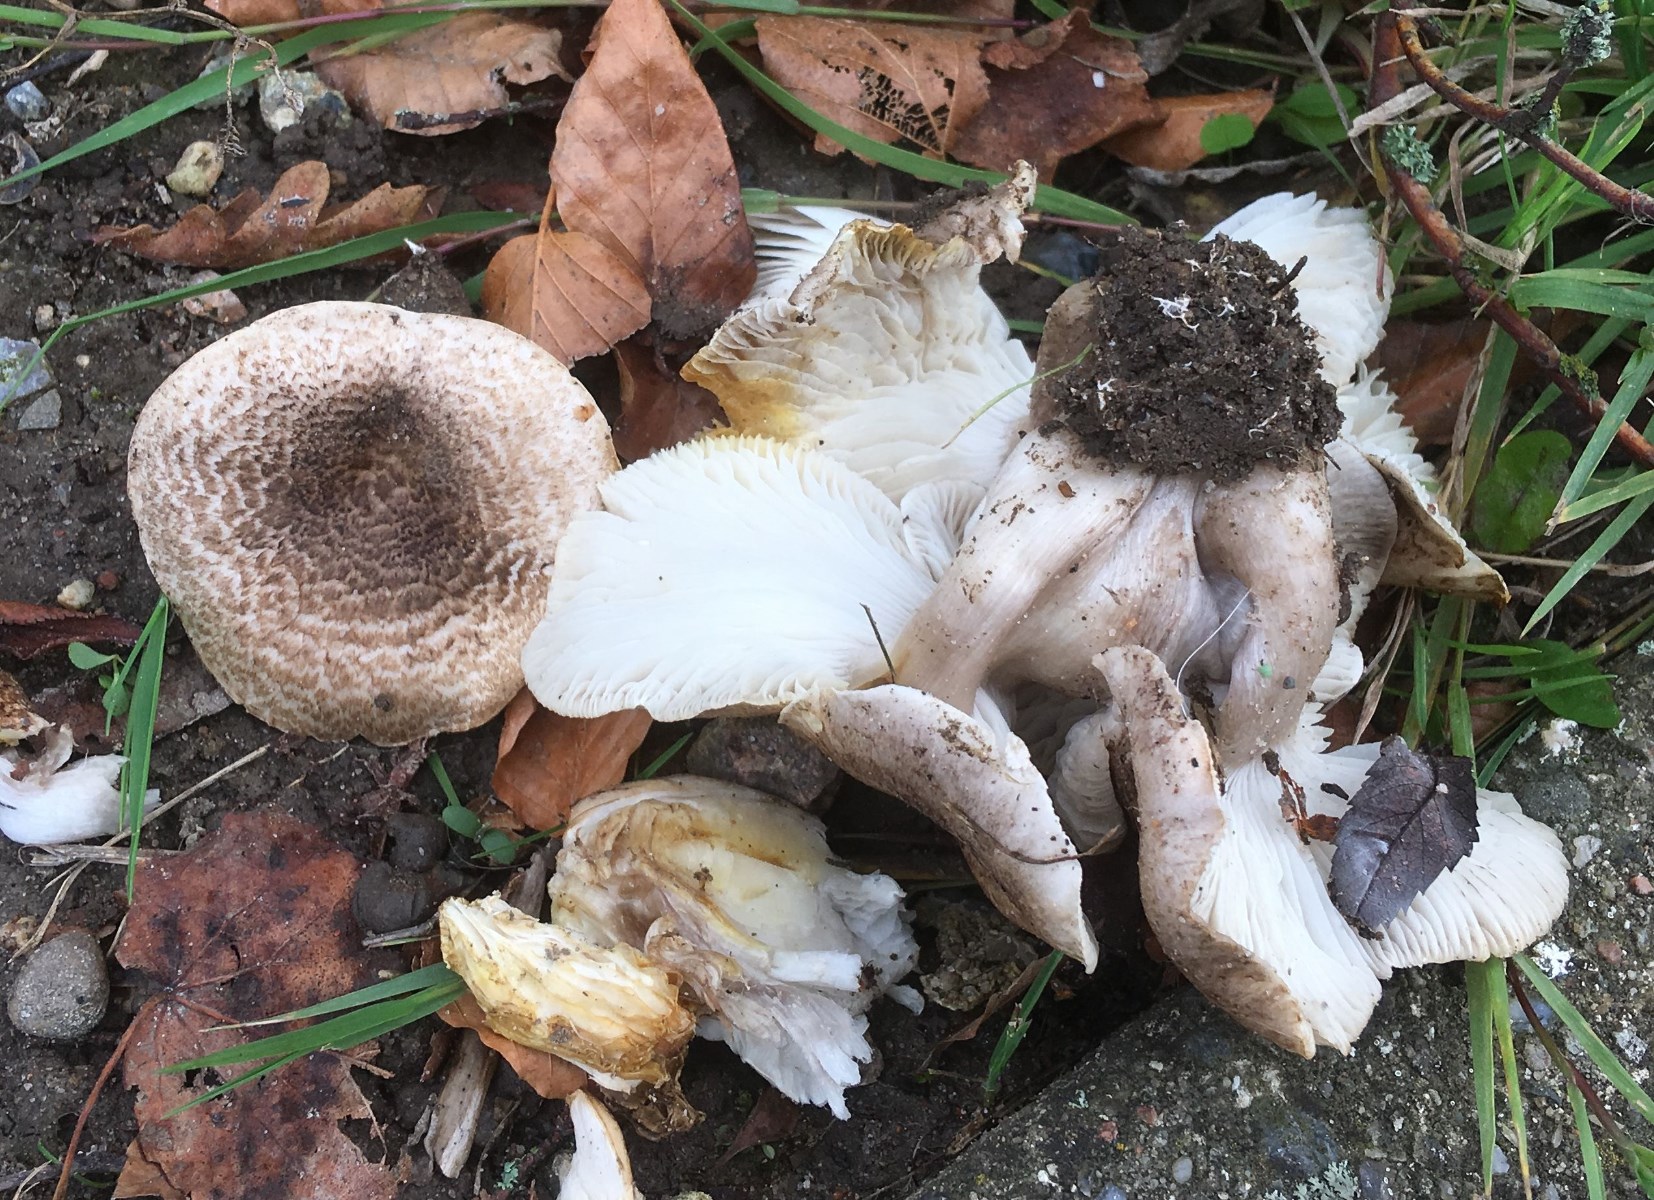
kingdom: Fungi
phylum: Basidiomycota
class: Agaricomycetes
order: Agaricales
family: Tricholomataceae
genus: Tricholoma
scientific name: Tricholoma scalpturatum
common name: gulplettet ridderhat
